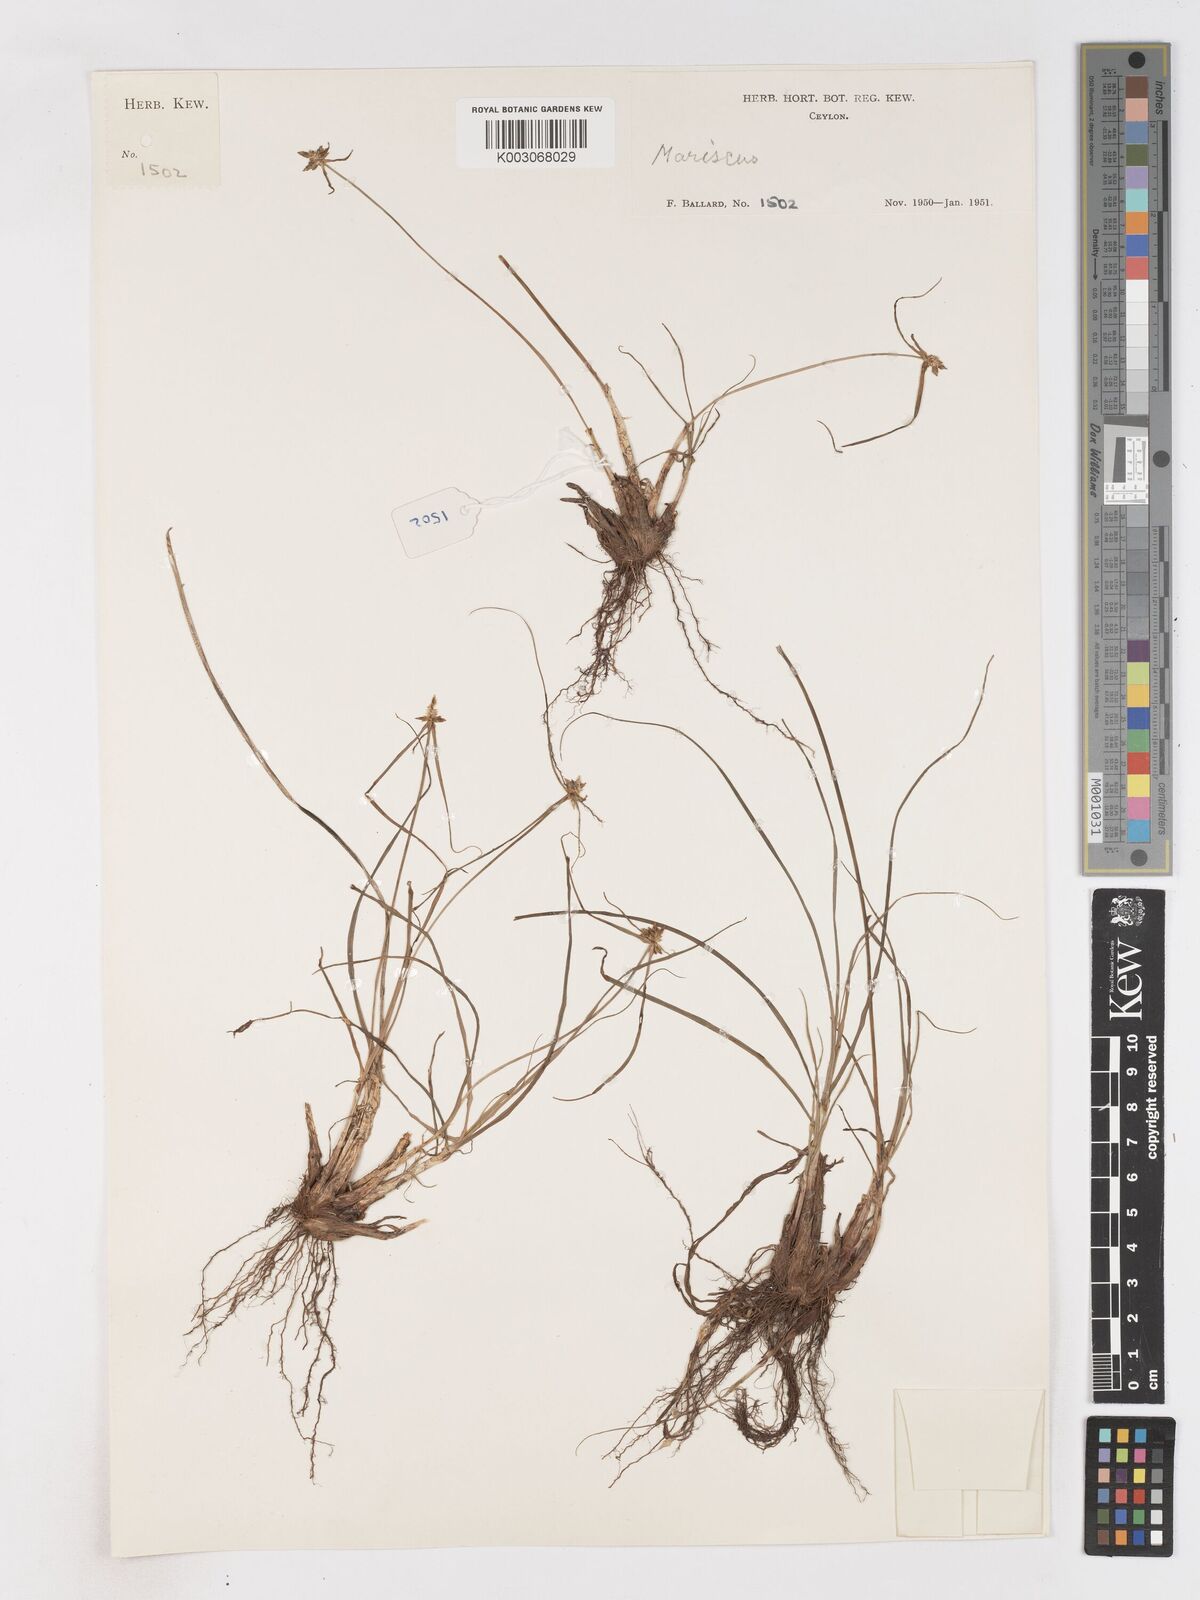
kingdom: Plantae
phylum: Tracheophyta
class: Liliopsida
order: Poales
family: Cyperaceae
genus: Cyperus
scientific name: Cyperus dubius
